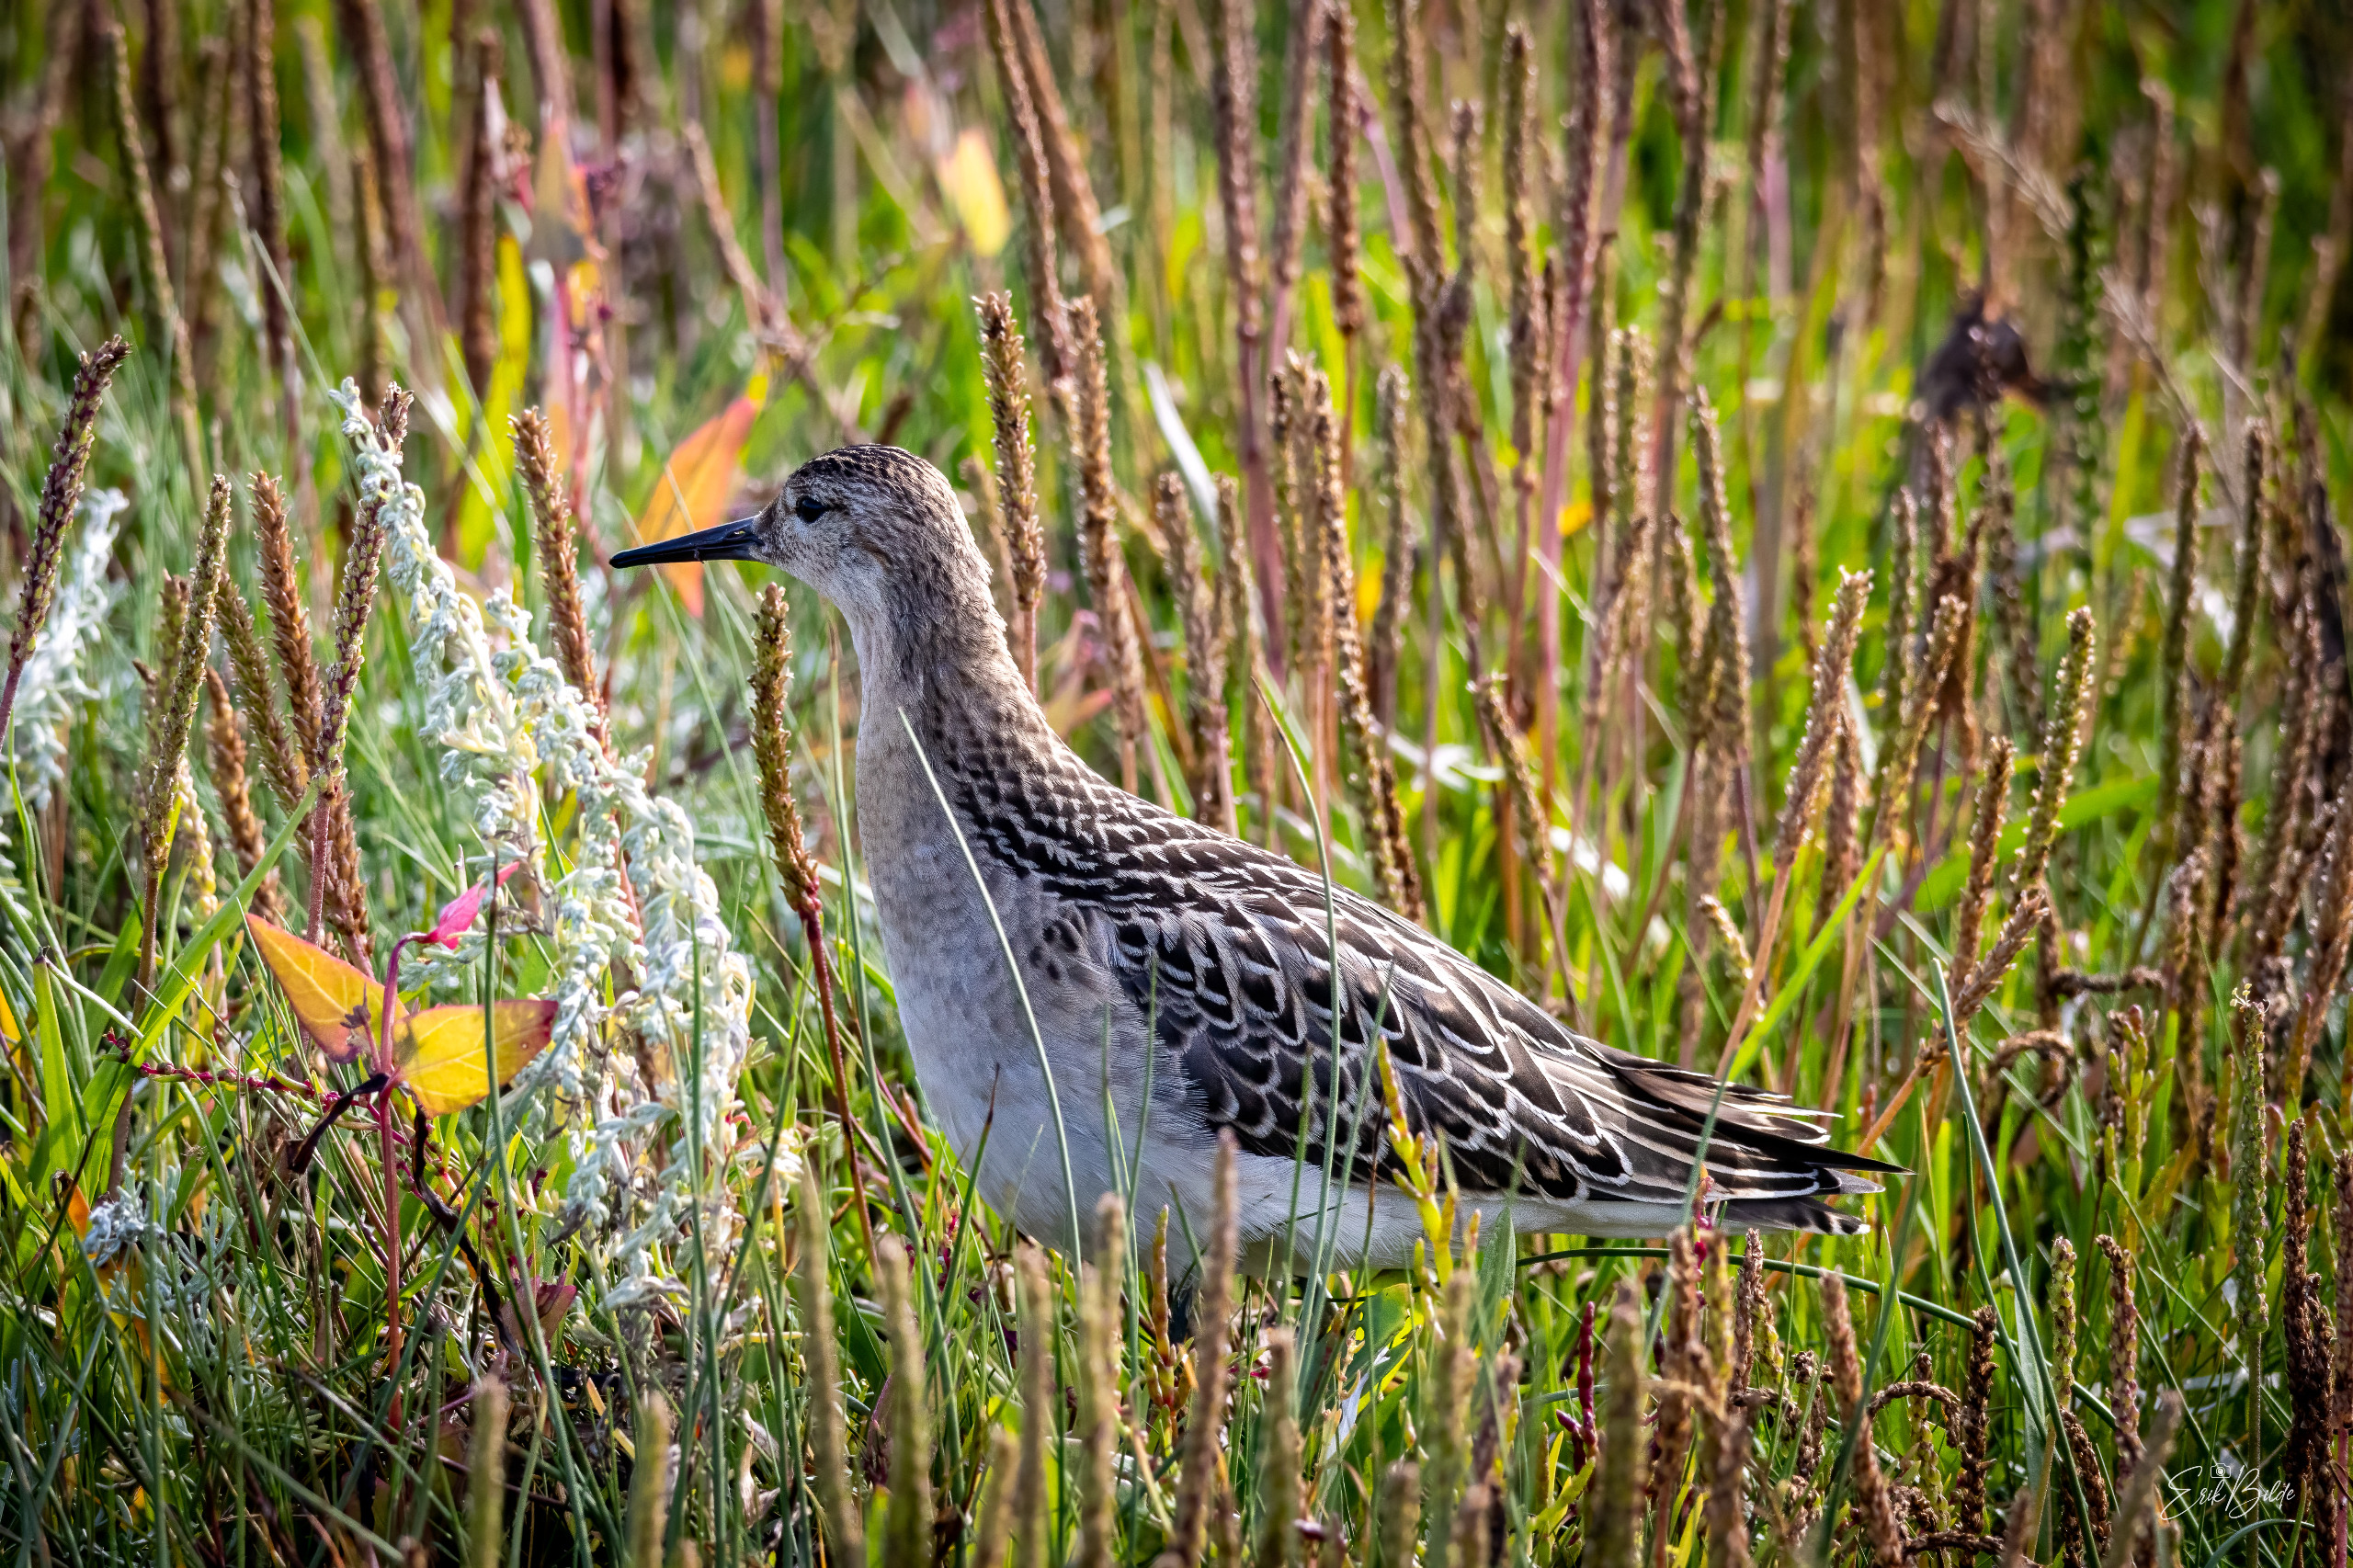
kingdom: Animalia
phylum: Chordata
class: Aves
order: Charadriiformes
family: Scolopacidae
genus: Calidris
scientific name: Calidris pugnax
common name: Brushane
